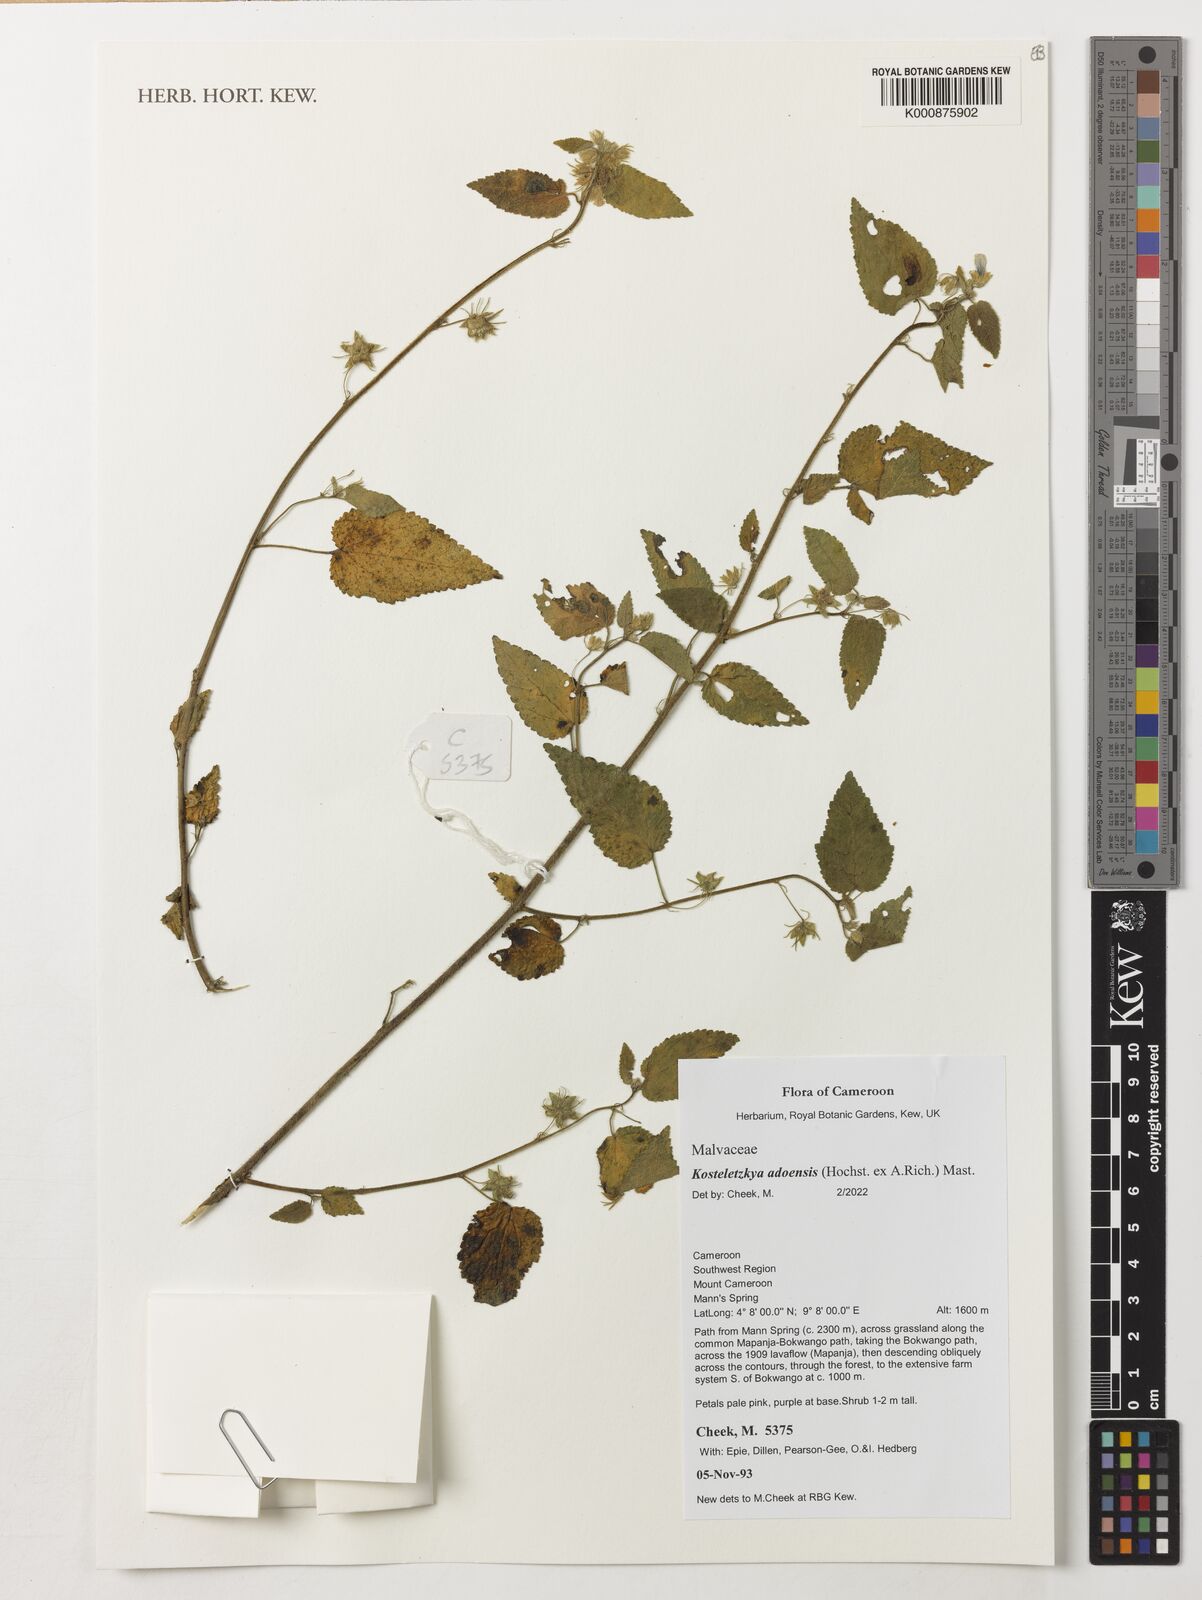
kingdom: Plantae
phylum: Tracheophyta
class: Magnoliopsida
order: Malvales
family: Malvaceae
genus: Kosteletzkya
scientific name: Kosteletzkya adoensis
